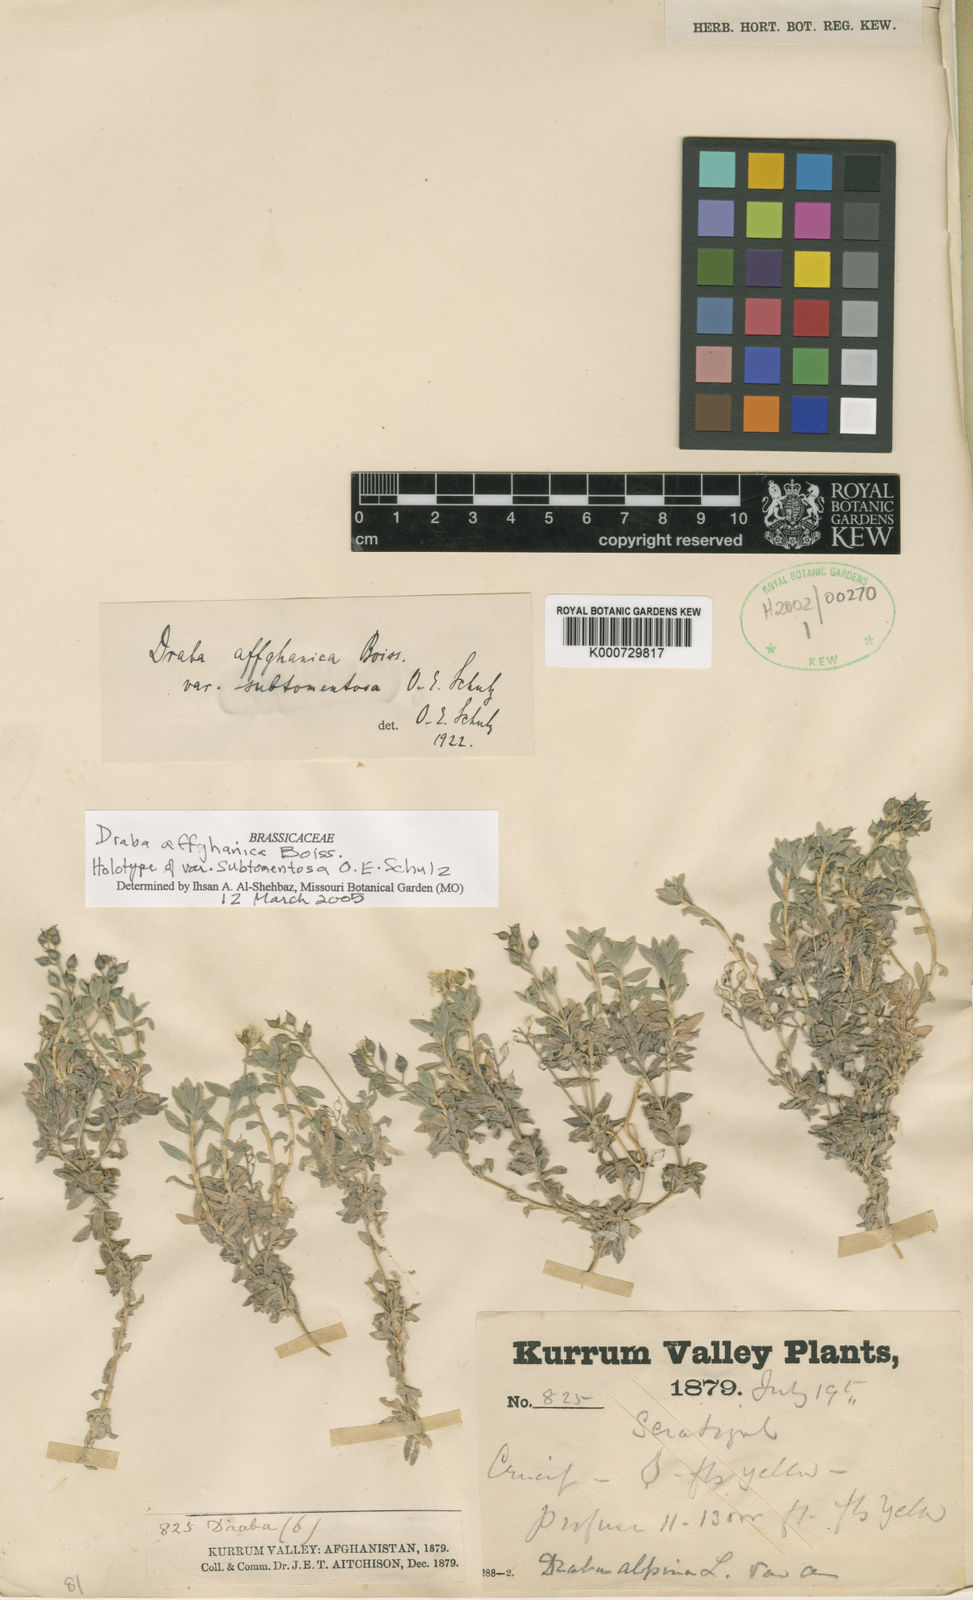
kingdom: Plantae
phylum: Tracheophyta
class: Magnoliopsida
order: Brassicales
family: Brassicaceae
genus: Draba
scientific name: Draba affghanica
